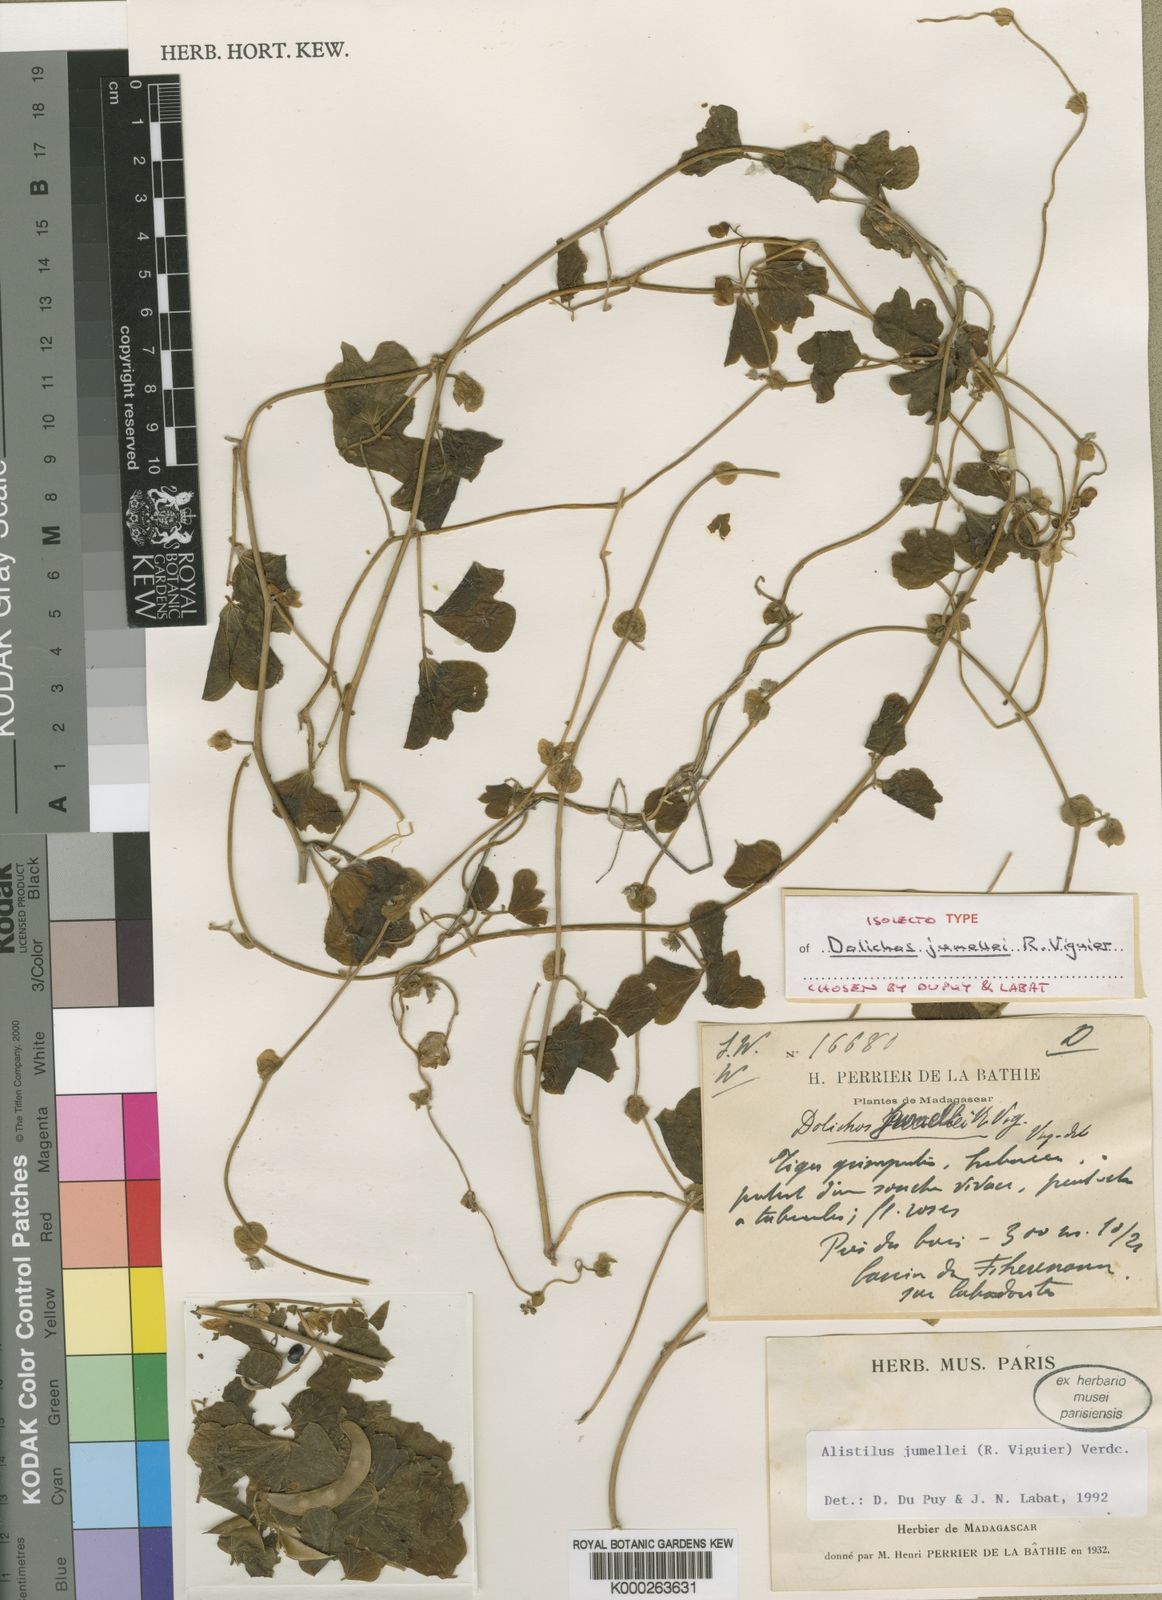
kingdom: Plantae
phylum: Tracheophyta
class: Magnoliopsida
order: Fabales
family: Fabaceae
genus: Alistilus
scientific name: Alistilus jumellei
